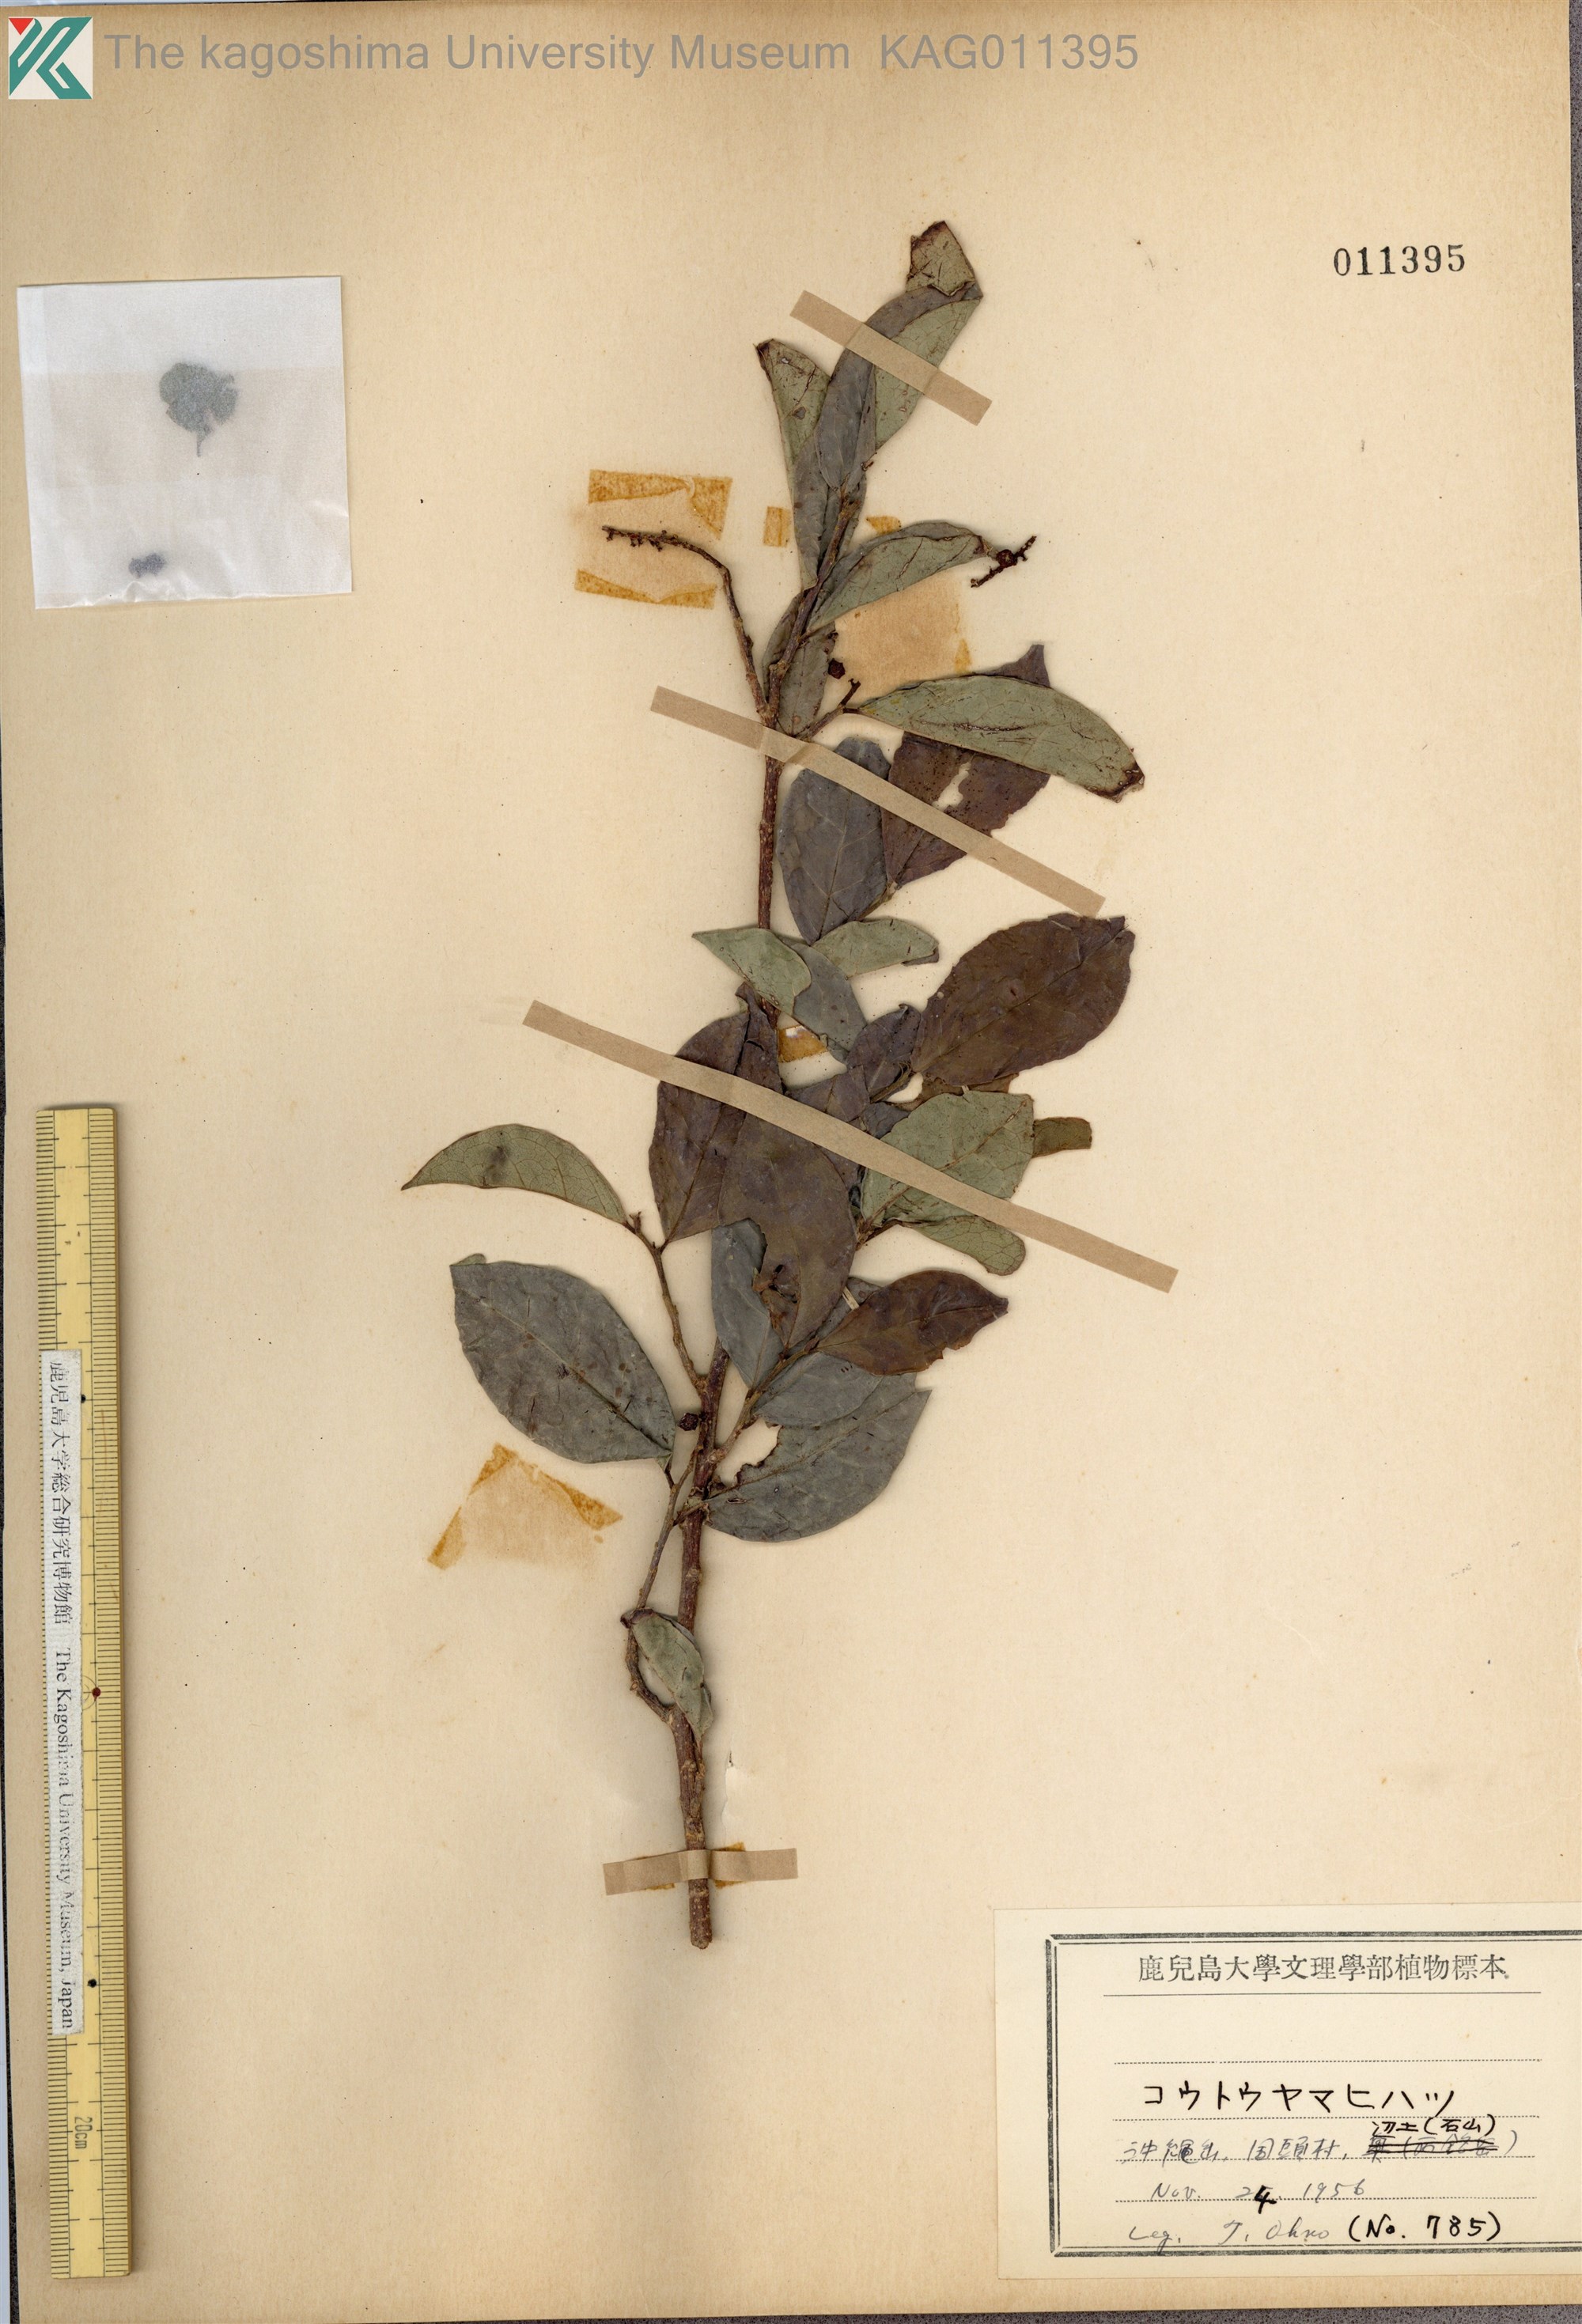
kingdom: Plantae
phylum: Tracheophyta
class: Magnoliopsida
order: Malpighiales
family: Phyllanthaceae
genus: Antidesma
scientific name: Antidesma montanum
